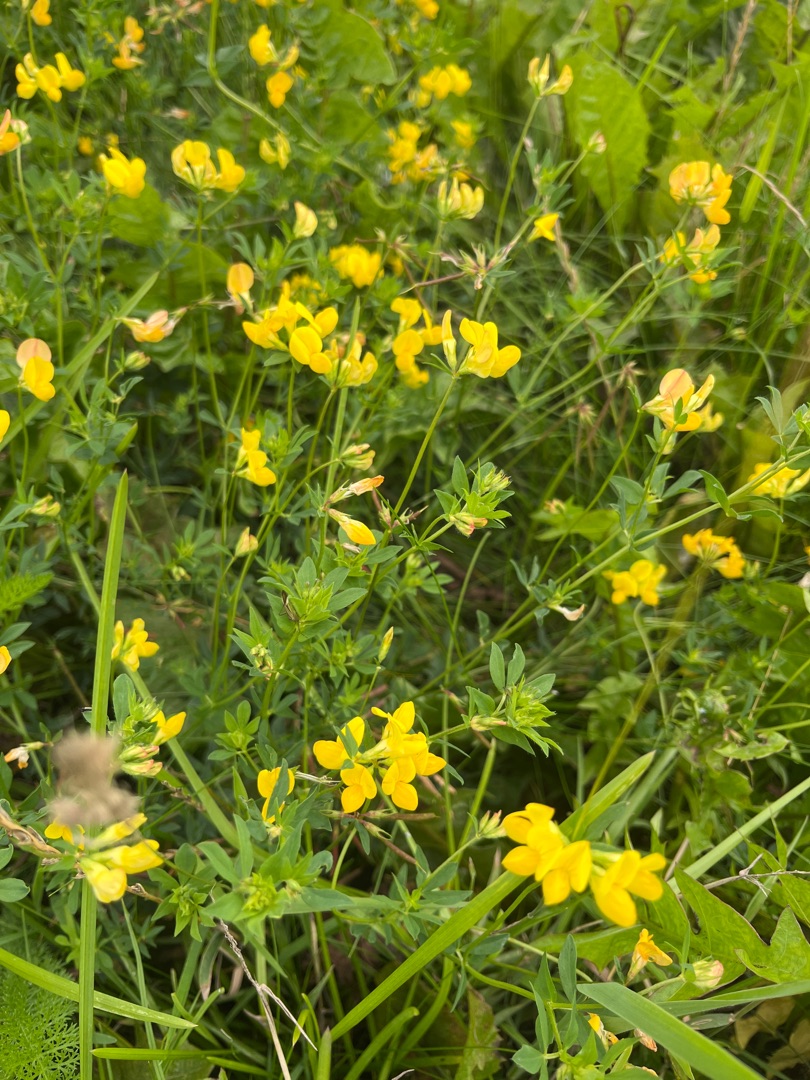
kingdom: Plantae
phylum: Tracheophyta
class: Magnoliopsida
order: Fabales
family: Fabaceae
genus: Lotus
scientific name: Lotus corniculatus
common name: Almindelig kællingetand
